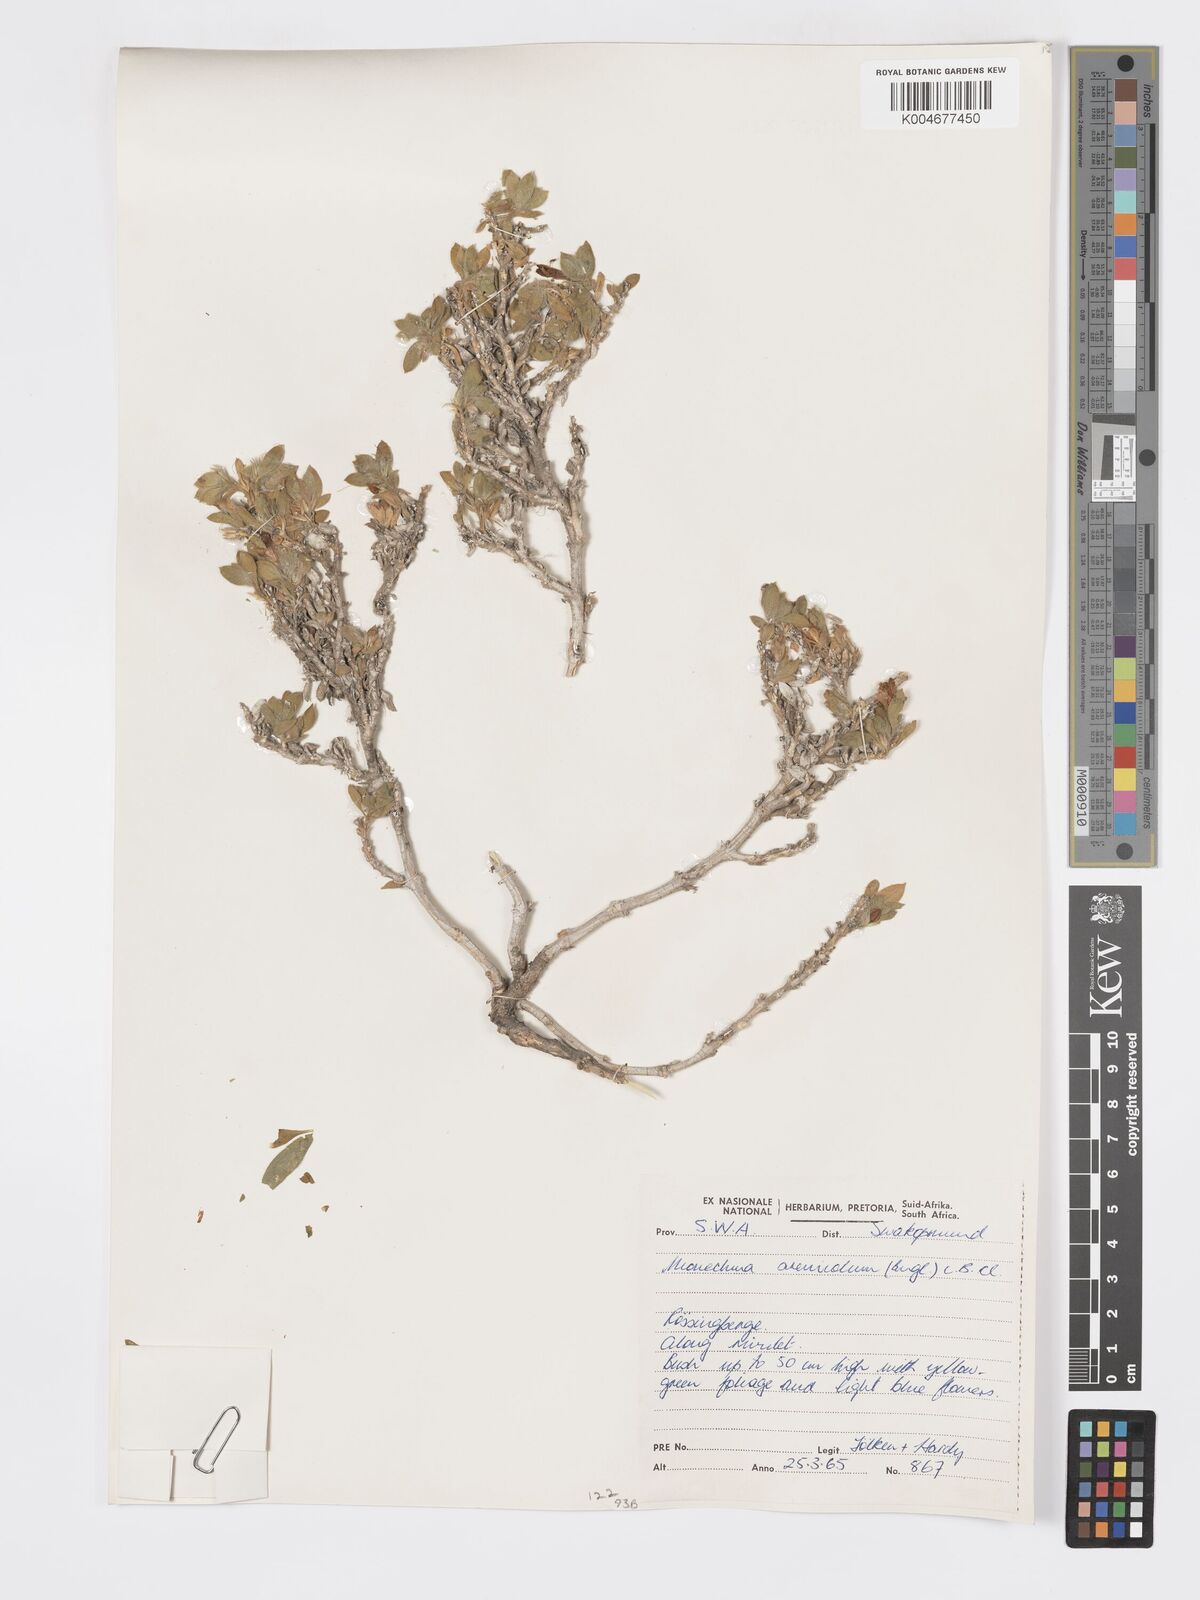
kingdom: Plantae
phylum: Tracheophyta
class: Magnoliopsida
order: Lamiales
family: Acanthaceae
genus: Pogonospermum
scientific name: Pogonospermum
